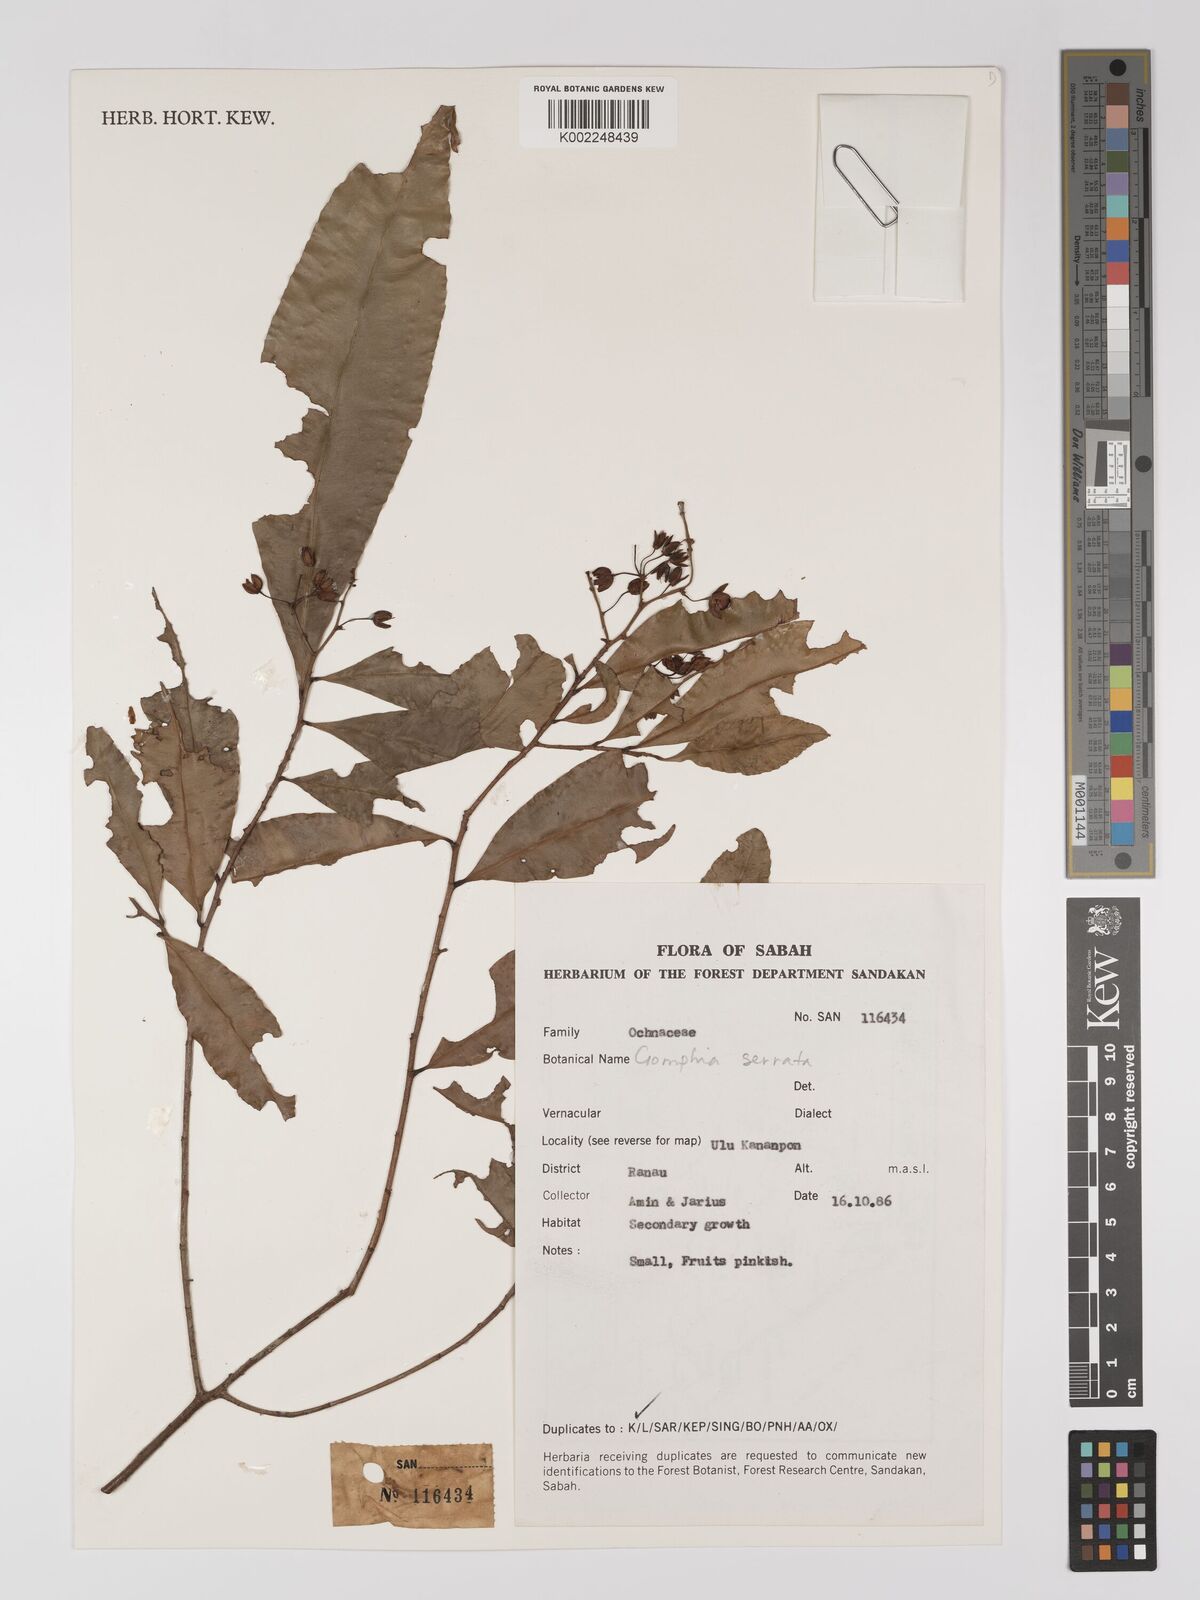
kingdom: Plantae
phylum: Tracheophyta
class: Magnoliopsida
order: Malpighiales
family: Ochnaceae
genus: Gomphia
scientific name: Gomphia serrata
